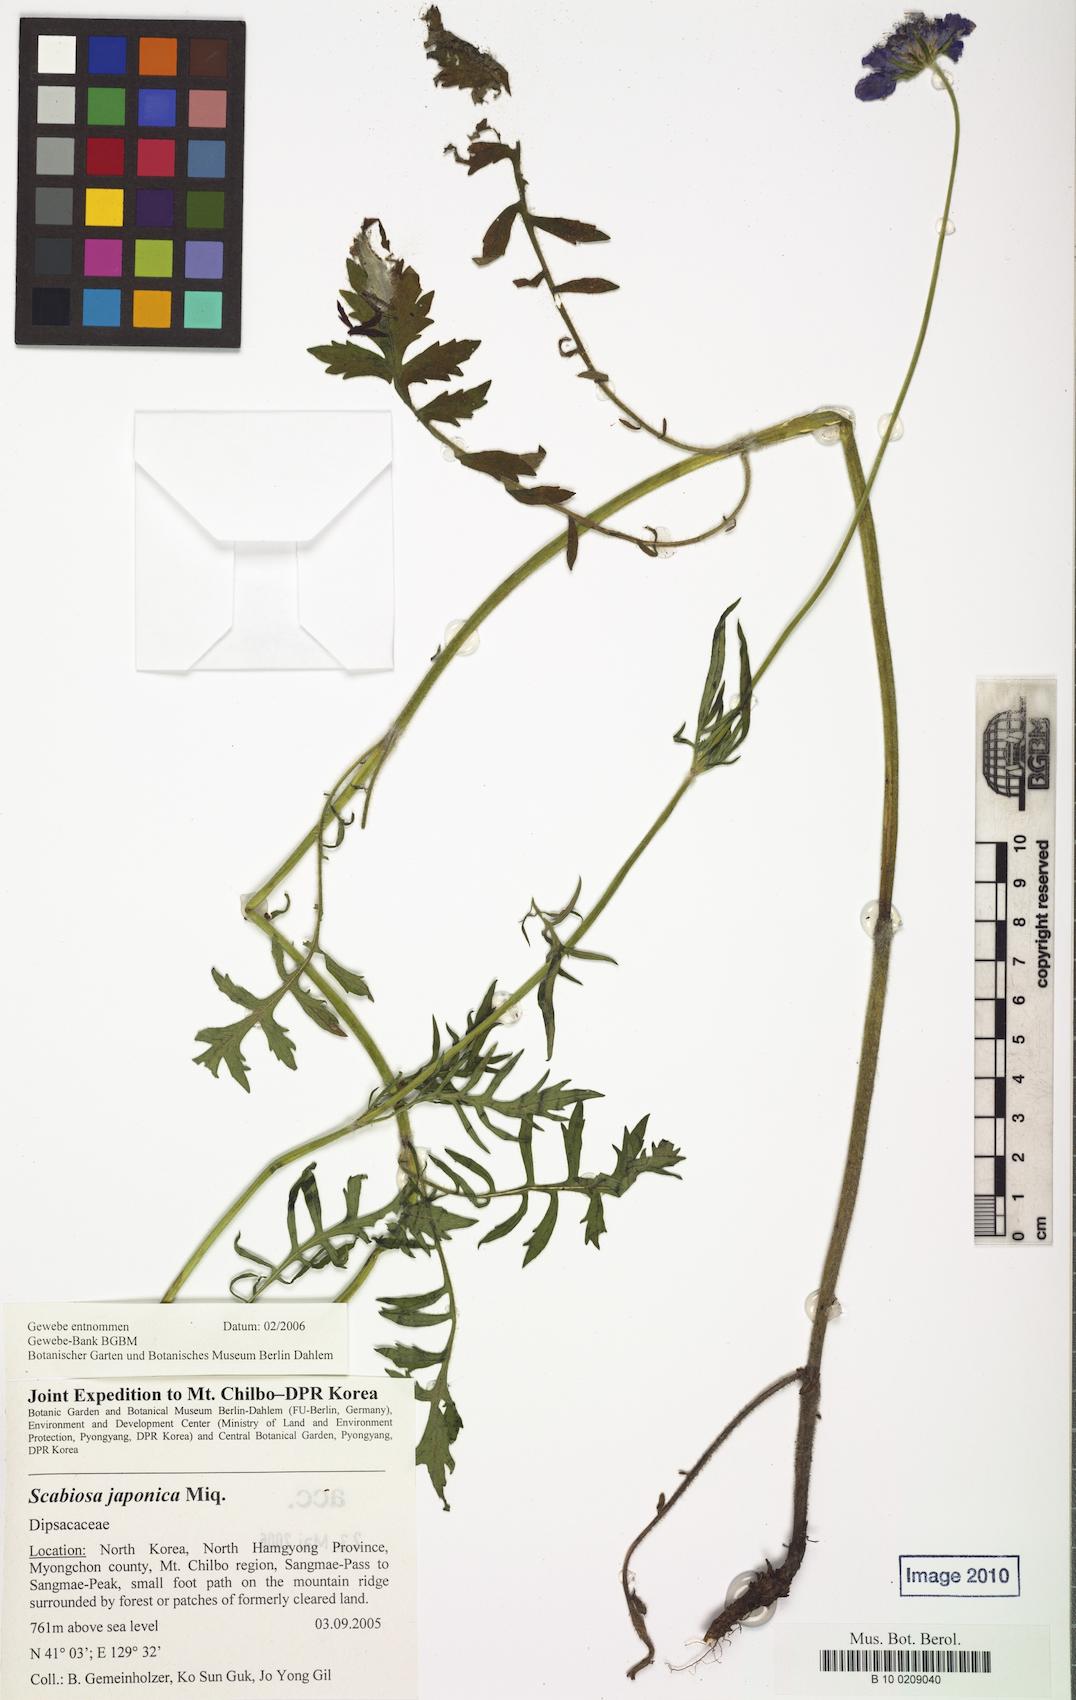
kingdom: Plantae
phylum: Tracheophyta
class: Magnoliopsida
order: Dipsacales
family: Caprifoliaceae
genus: Scabiosa
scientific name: Scabiosa japonica
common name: Pincushion-flower
